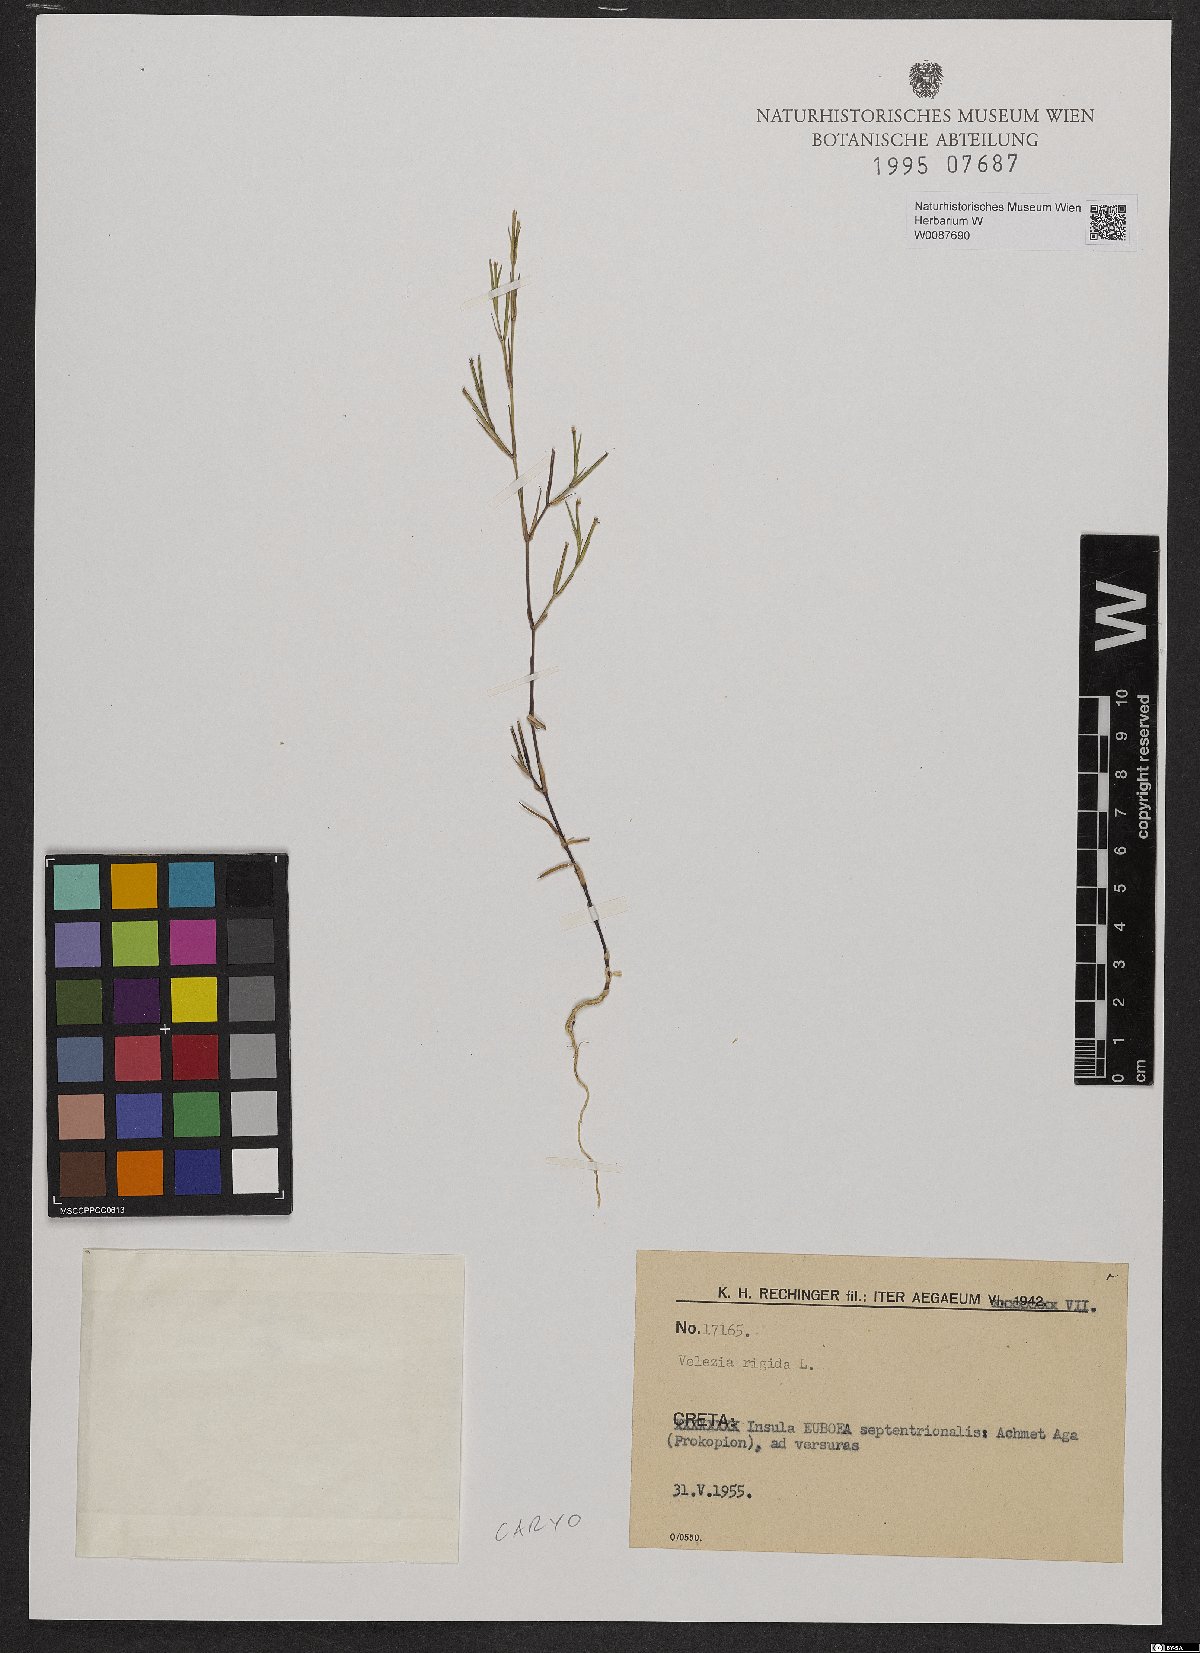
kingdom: Plantae
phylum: Tracheophyta
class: Magnoliopsida
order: Caryophyllales
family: Caryophyllaceae
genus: Dianthus
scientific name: Dianthus nudiflorus
